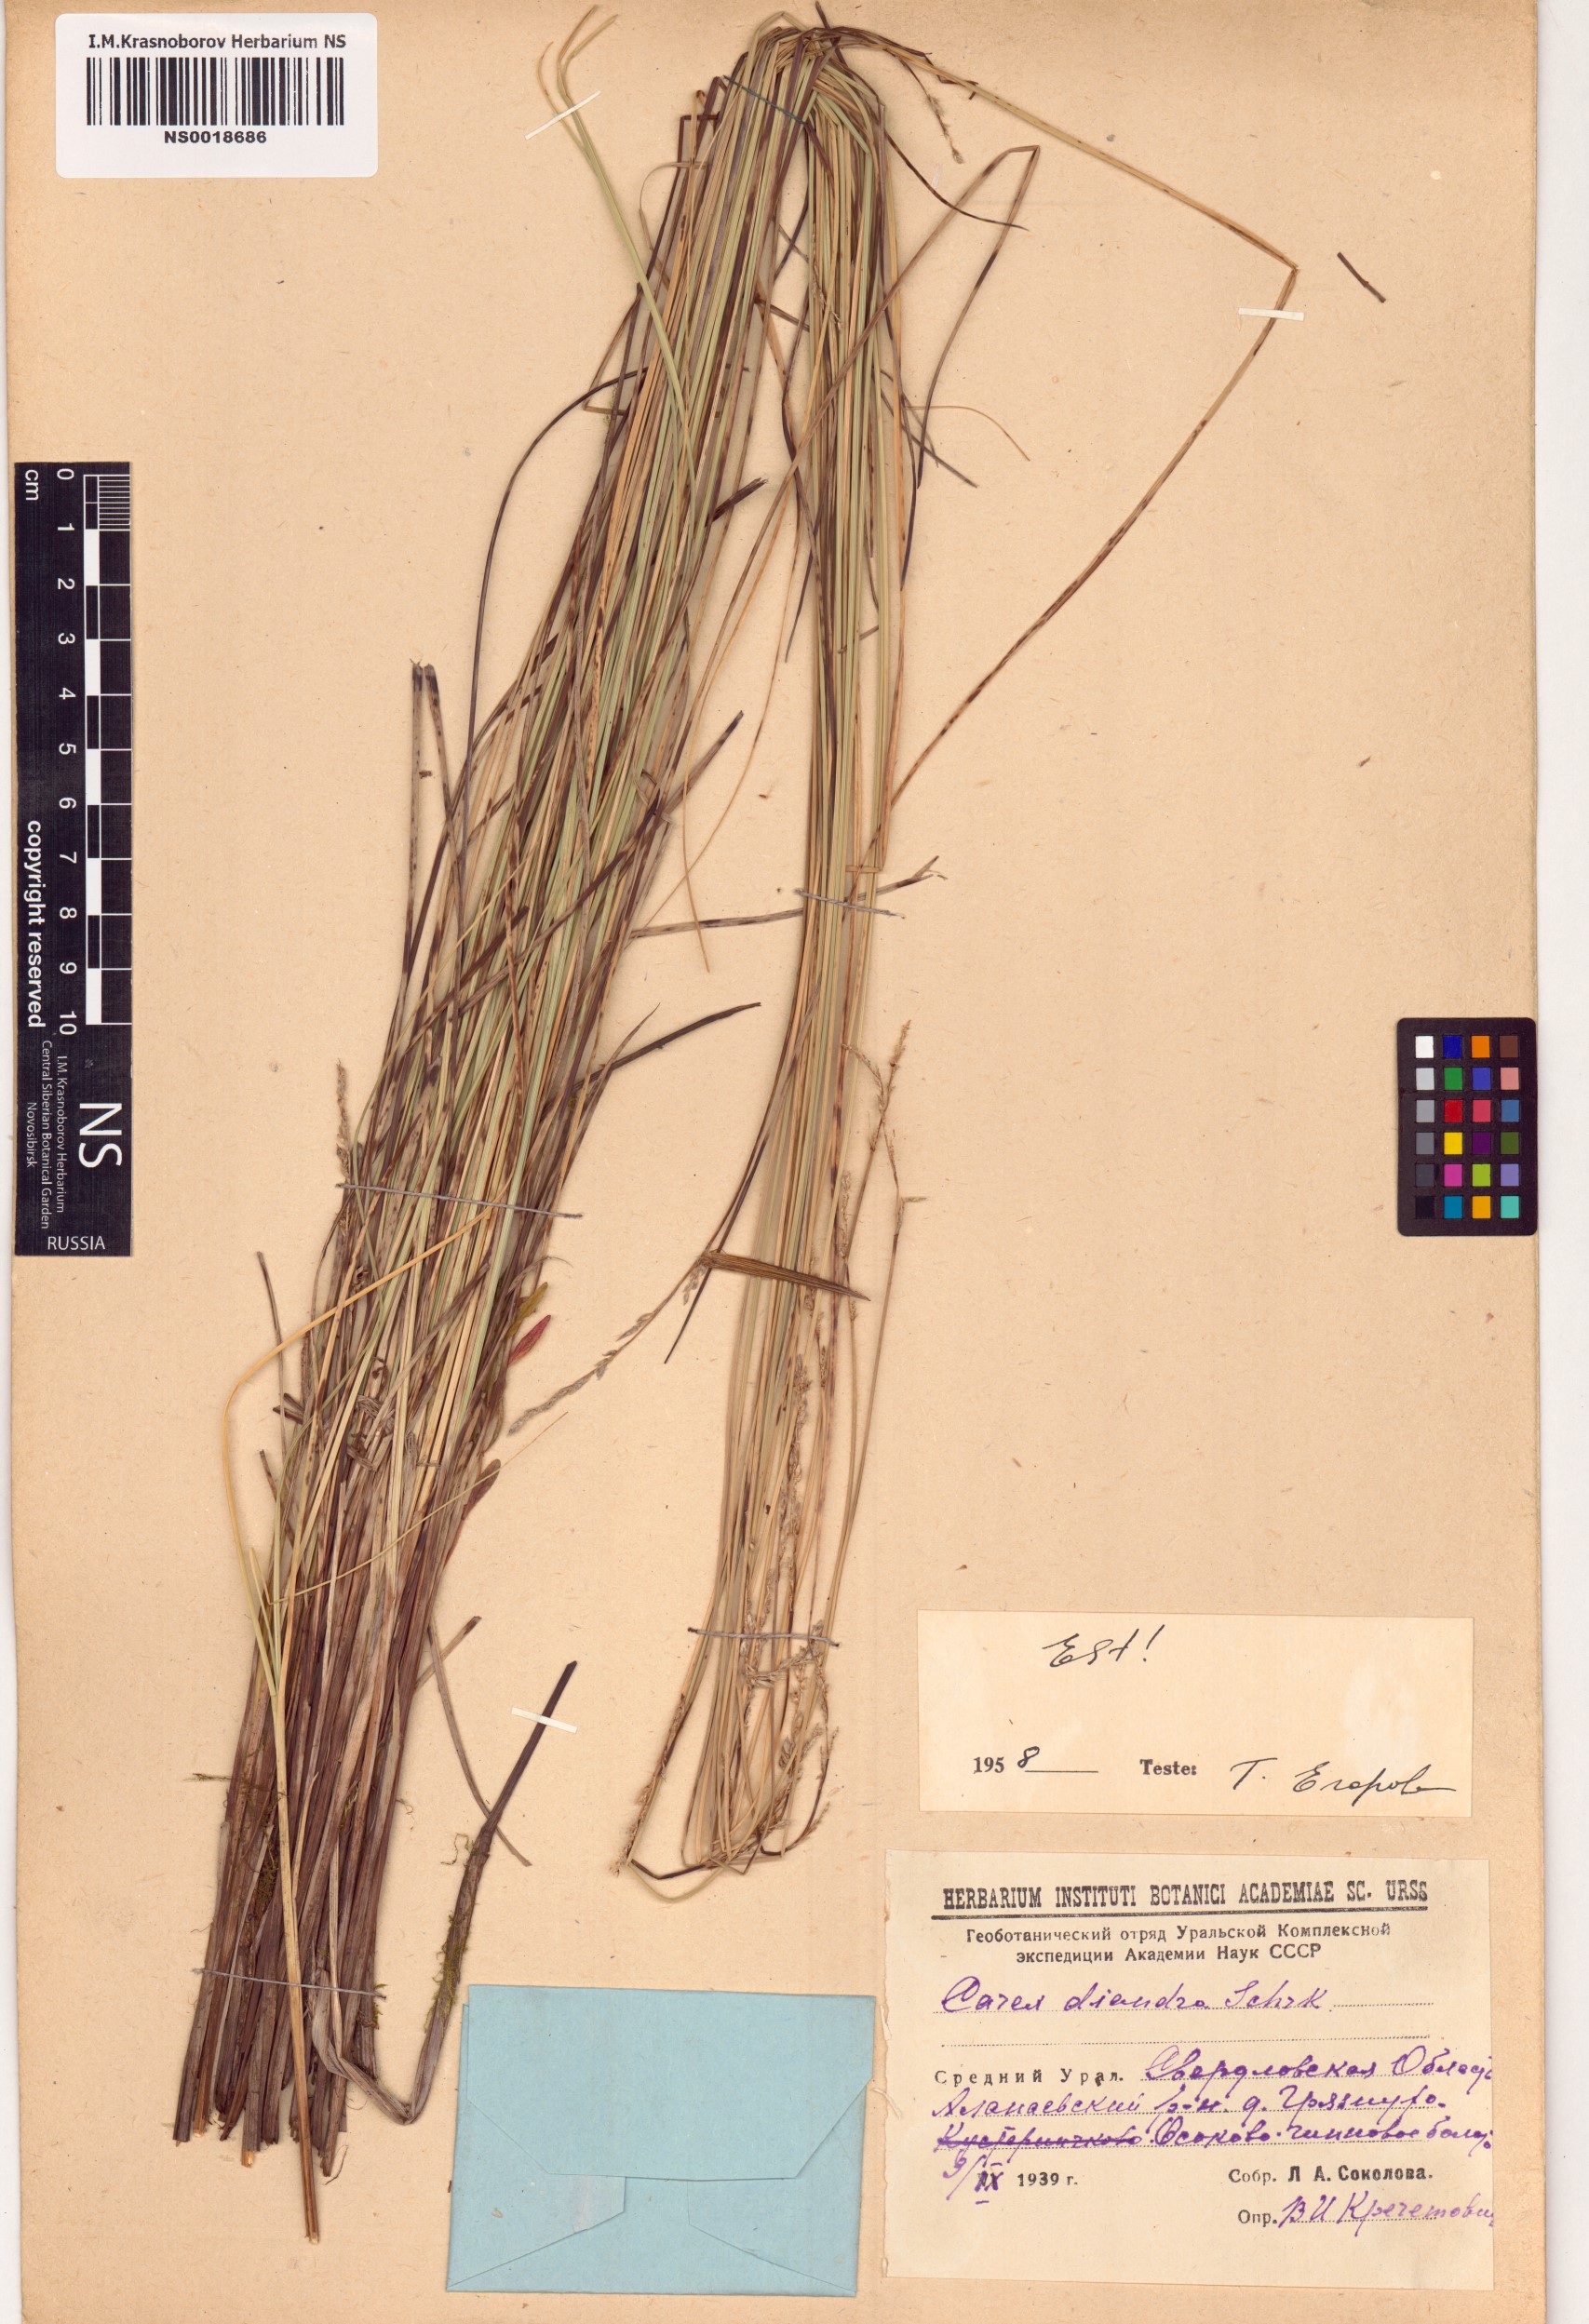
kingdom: Plantae
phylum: Tracheophyta
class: Liliopsida
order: Poales
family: Cyperaceae
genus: Carex
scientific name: Carex diandra
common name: Lesser tussock-sedge
